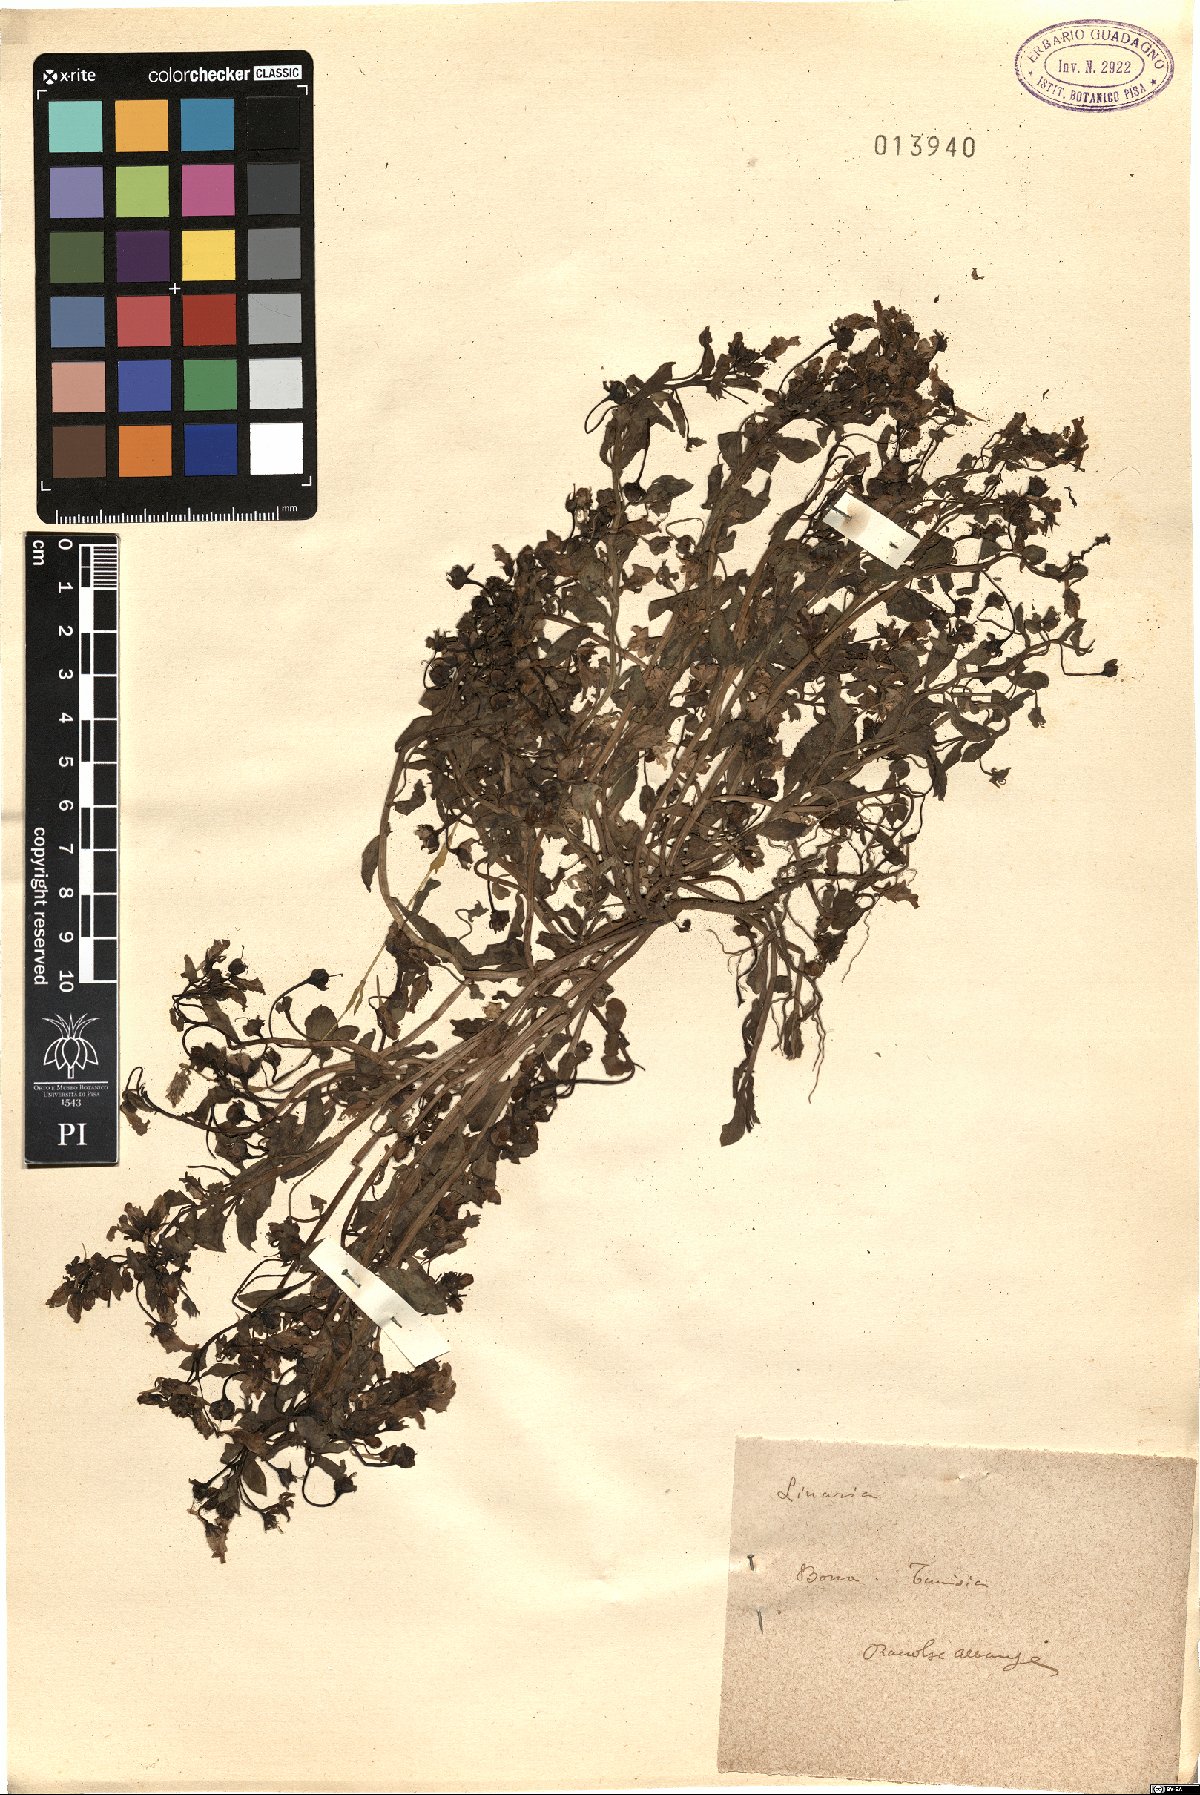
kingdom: Plantae
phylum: Tracheophyta
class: Magnoliopsida
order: Lamiales
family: Plantaginaceae
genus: Linaria
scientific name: Linaria
